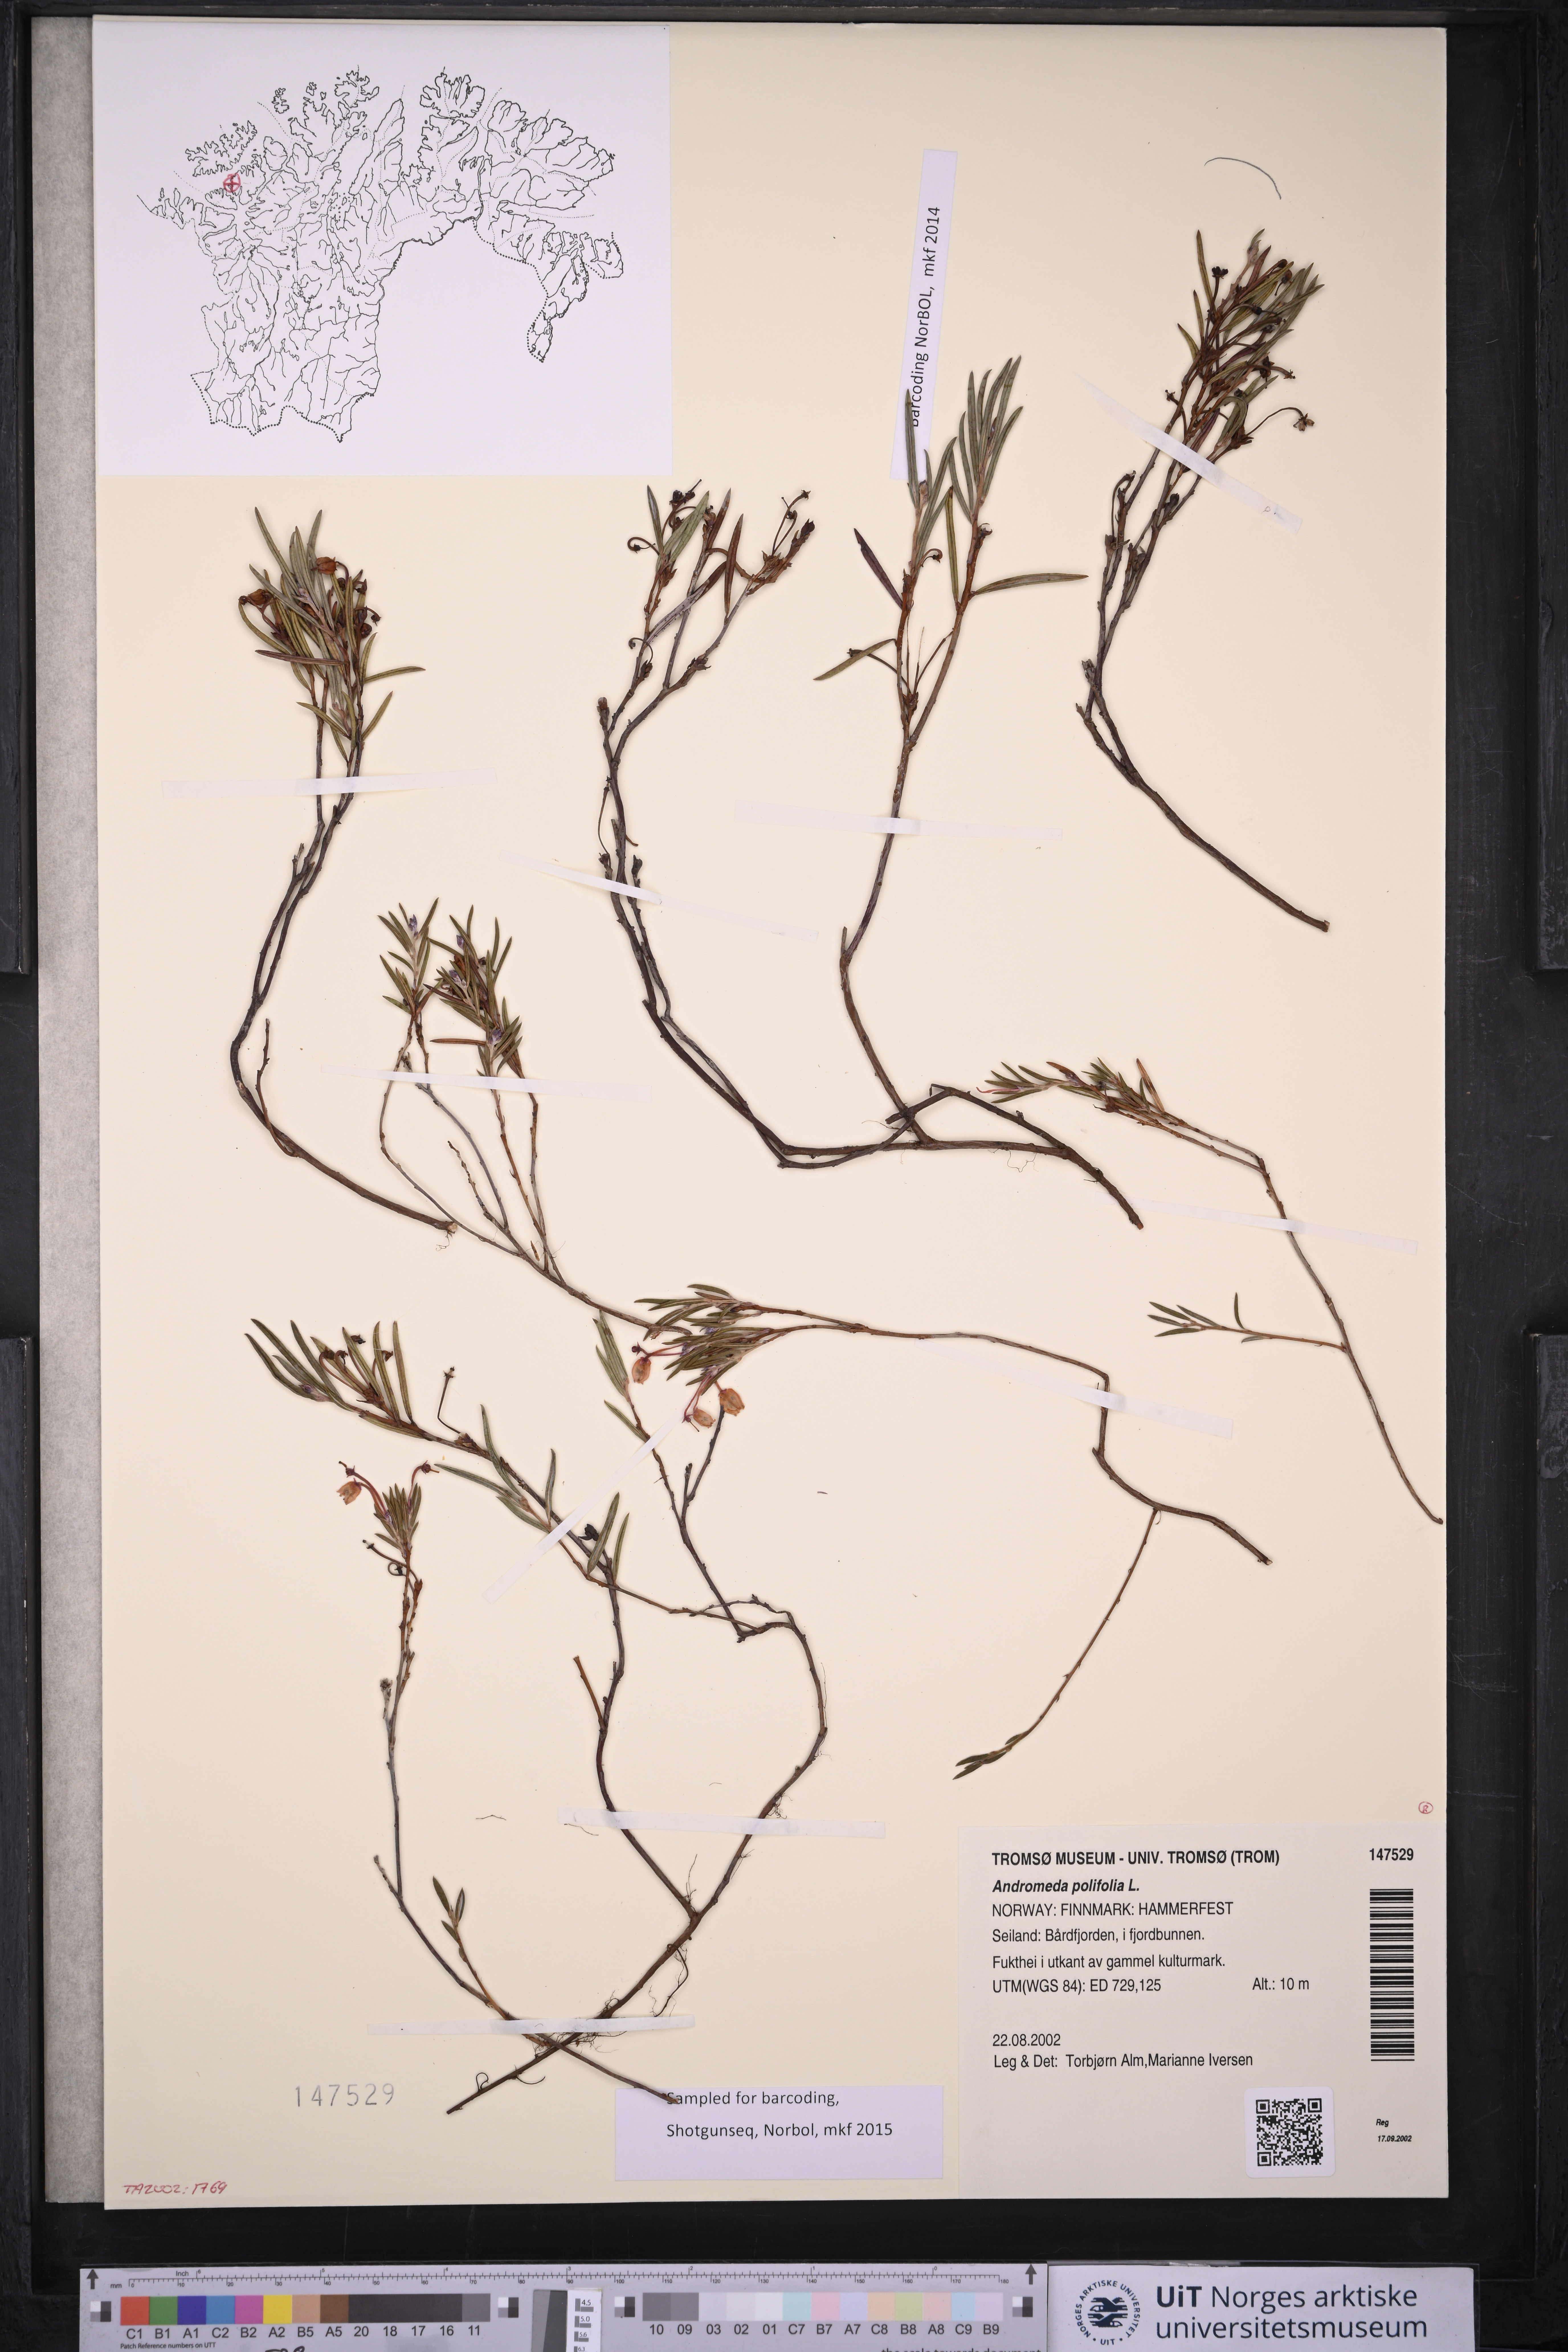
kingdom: Plantae
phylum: Tracheophyta
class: Magnoliopsida
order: Ericales
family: Ericaceae
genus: Andromeda
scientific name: Andromeda polifolia
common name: Bog-rosemary
